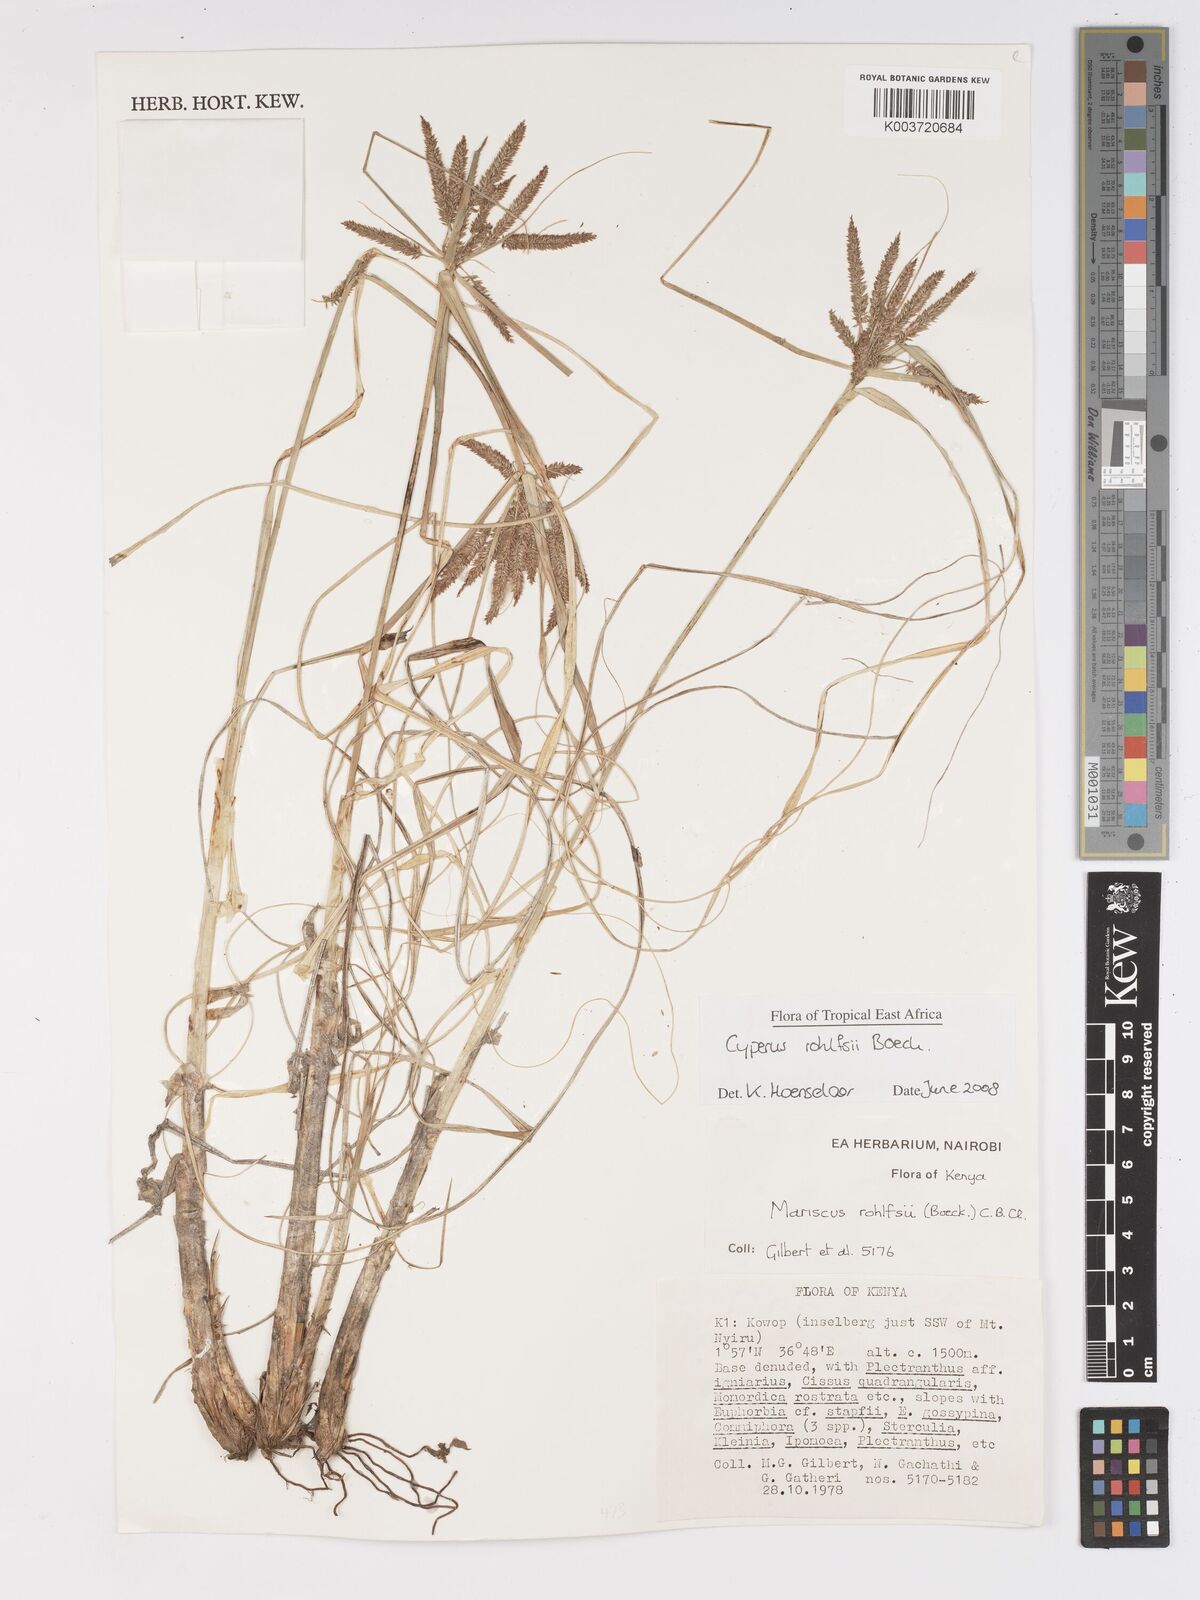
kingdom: Plantae
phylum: Tracheophyta
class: Liliopsida
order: Poales
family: Cyperaceae
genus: Cyperus
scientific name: Cyperus rohlfsii
